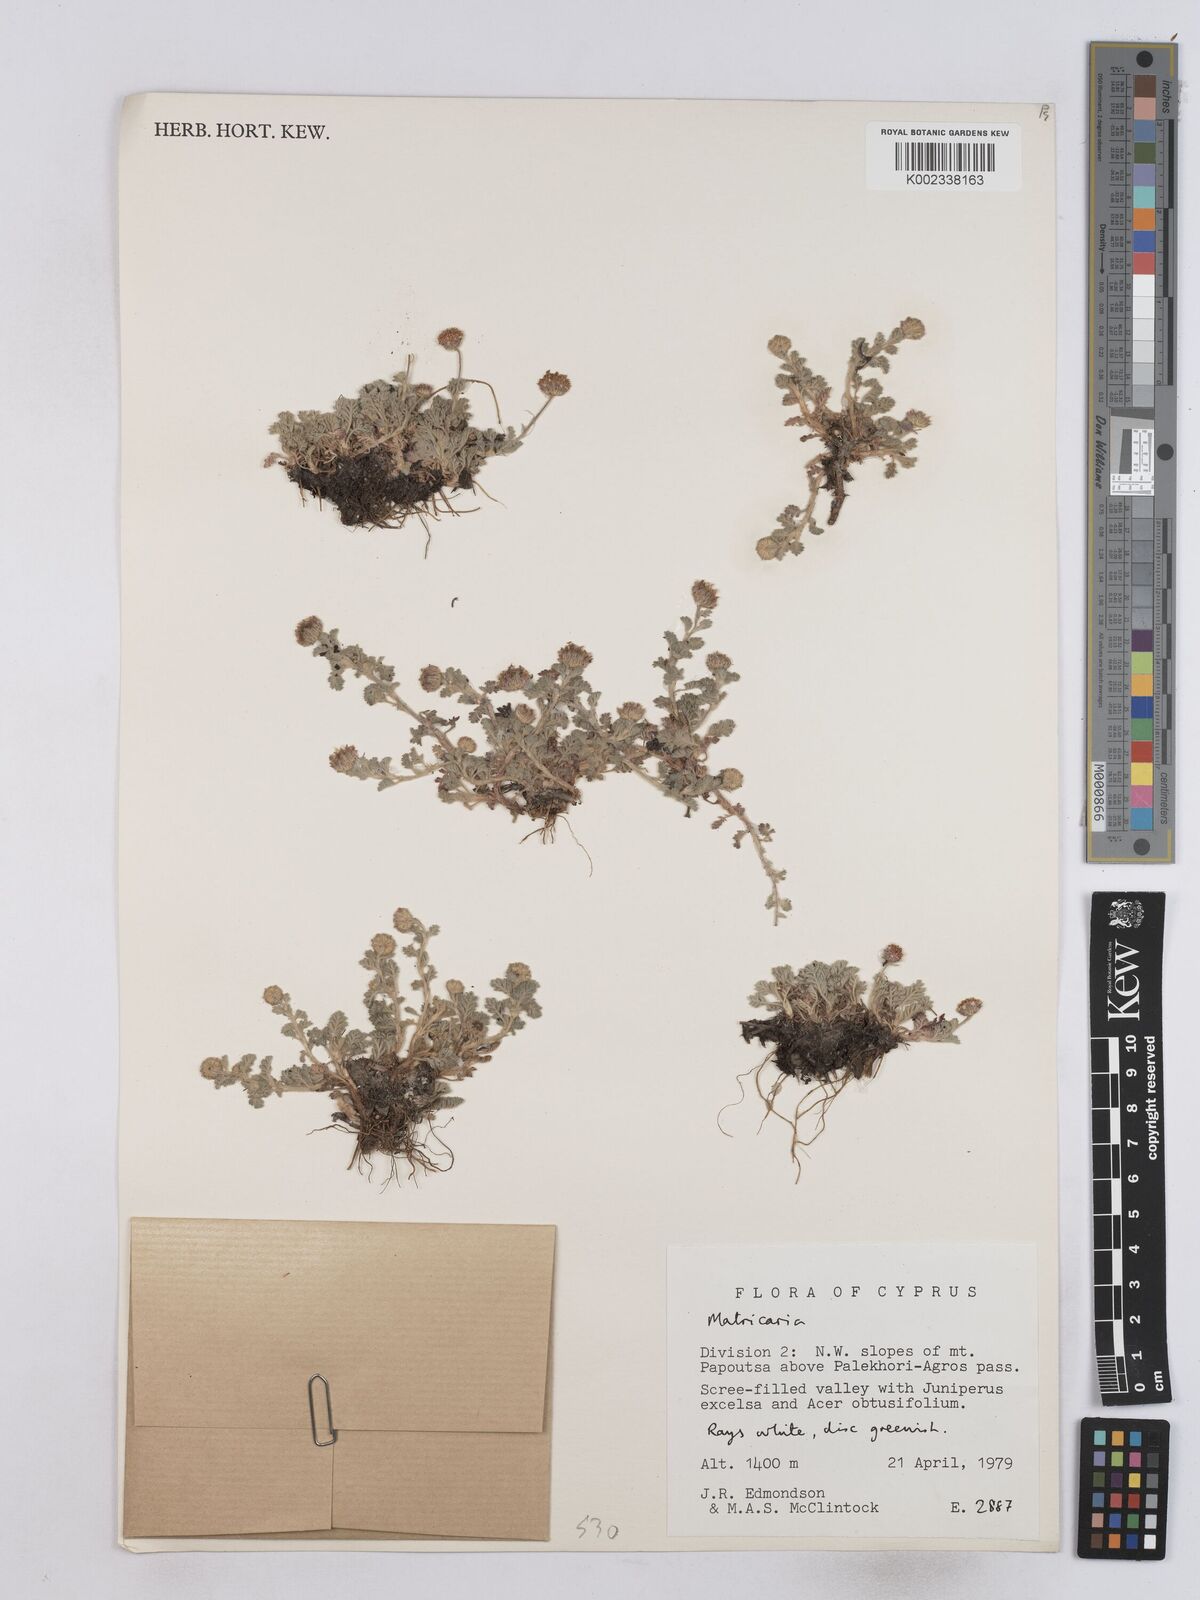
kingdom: Plantae
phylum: Tracheophyta
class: Magnoliopsida
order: Asterales
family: Asteraceae
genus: Matricaria
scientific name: Matricaria
